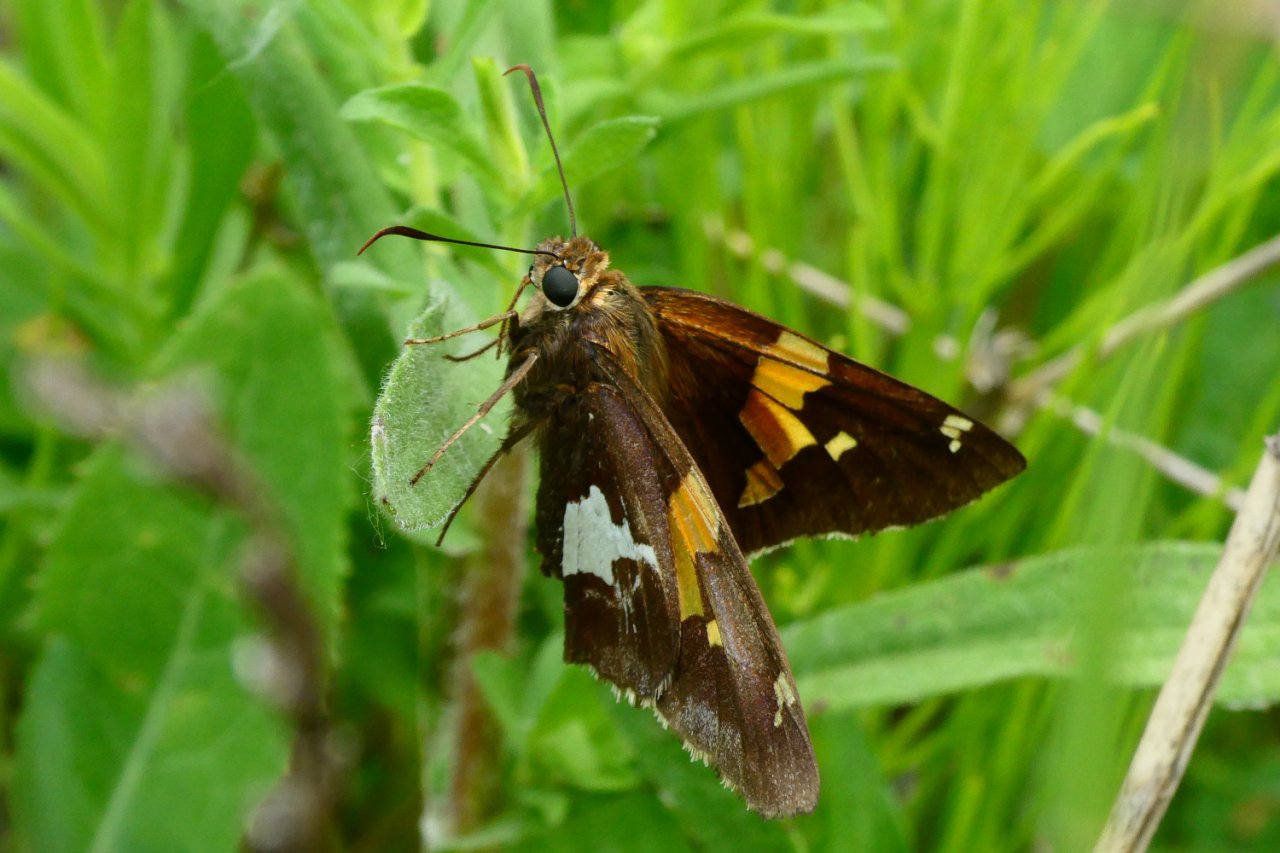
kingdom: Animalia
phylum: Arthropoda
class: Insecta
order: Lepidoptera
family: Hesperiidae
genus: Epargyreus
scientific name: Epargyreus clarus
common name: Silver-spotted Skipper
